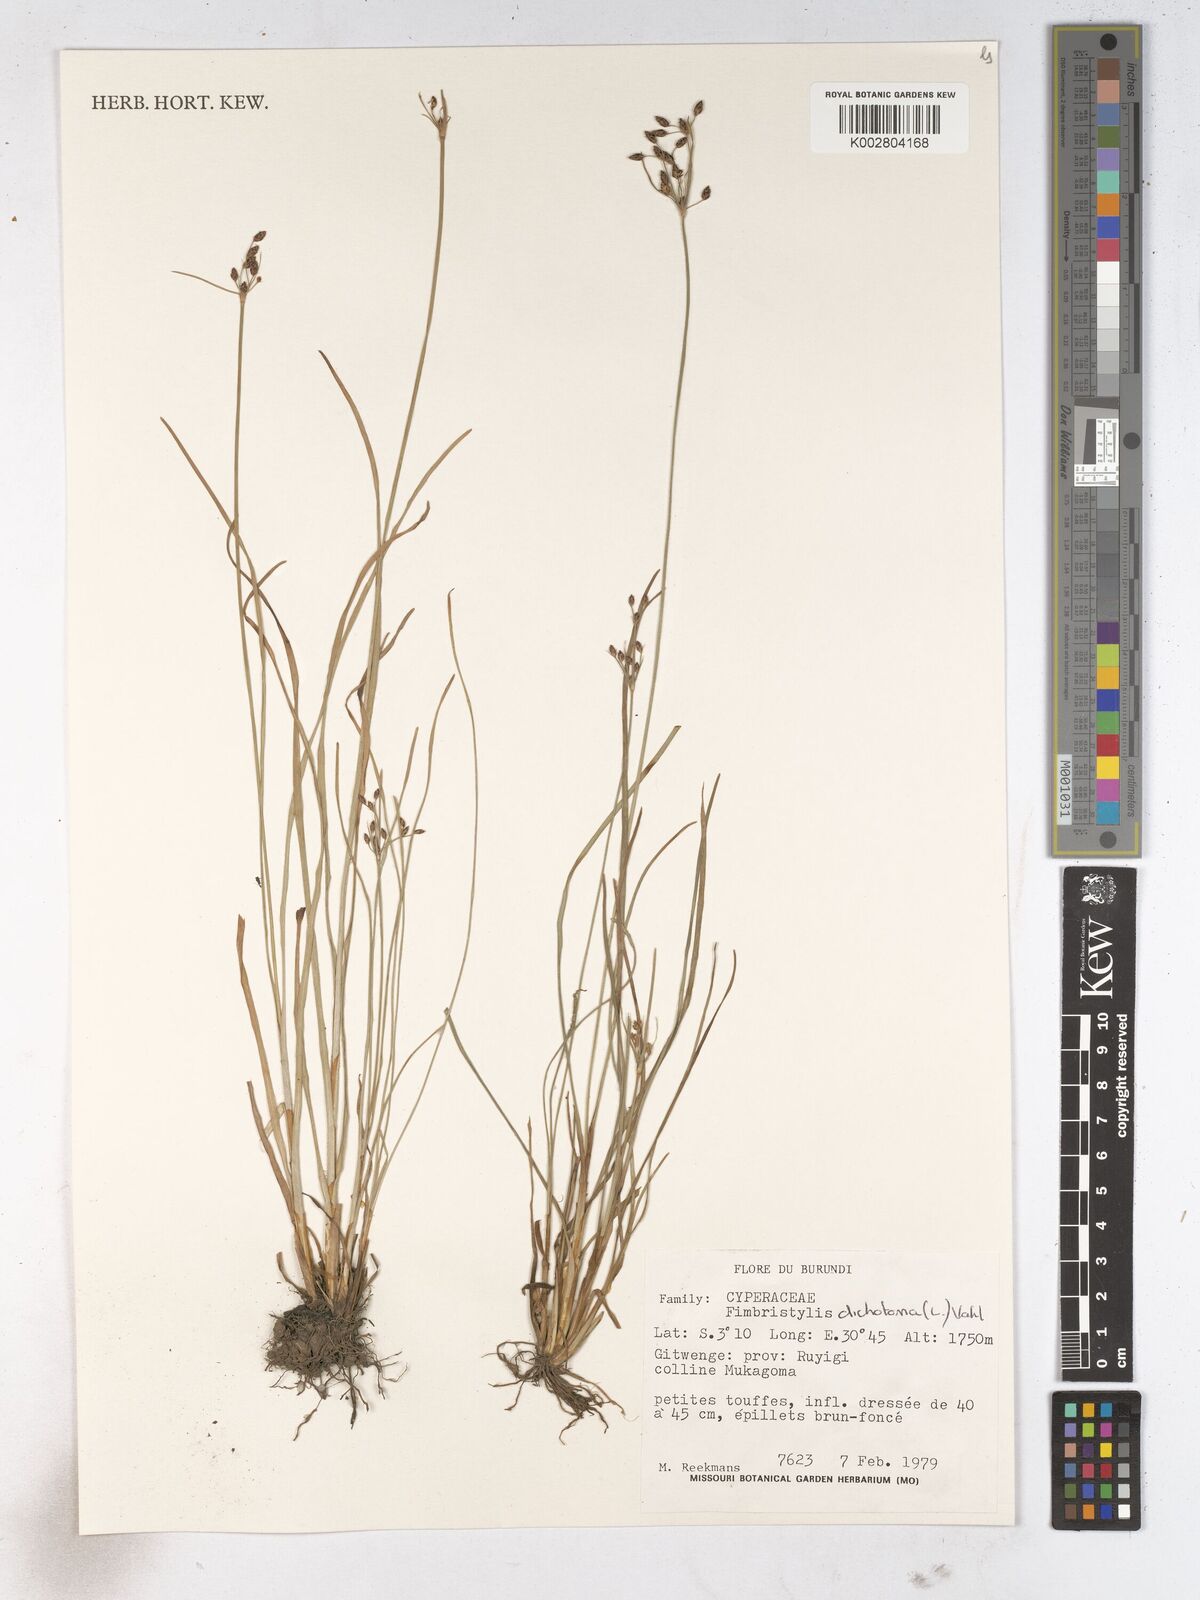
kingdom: Plantae
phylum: Tracheophyta
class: Liliopsida
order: Poales
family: Cyperaceae
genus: Fimbristylis
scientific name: Fimbristylis dichotoma
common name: Forked fimbry
